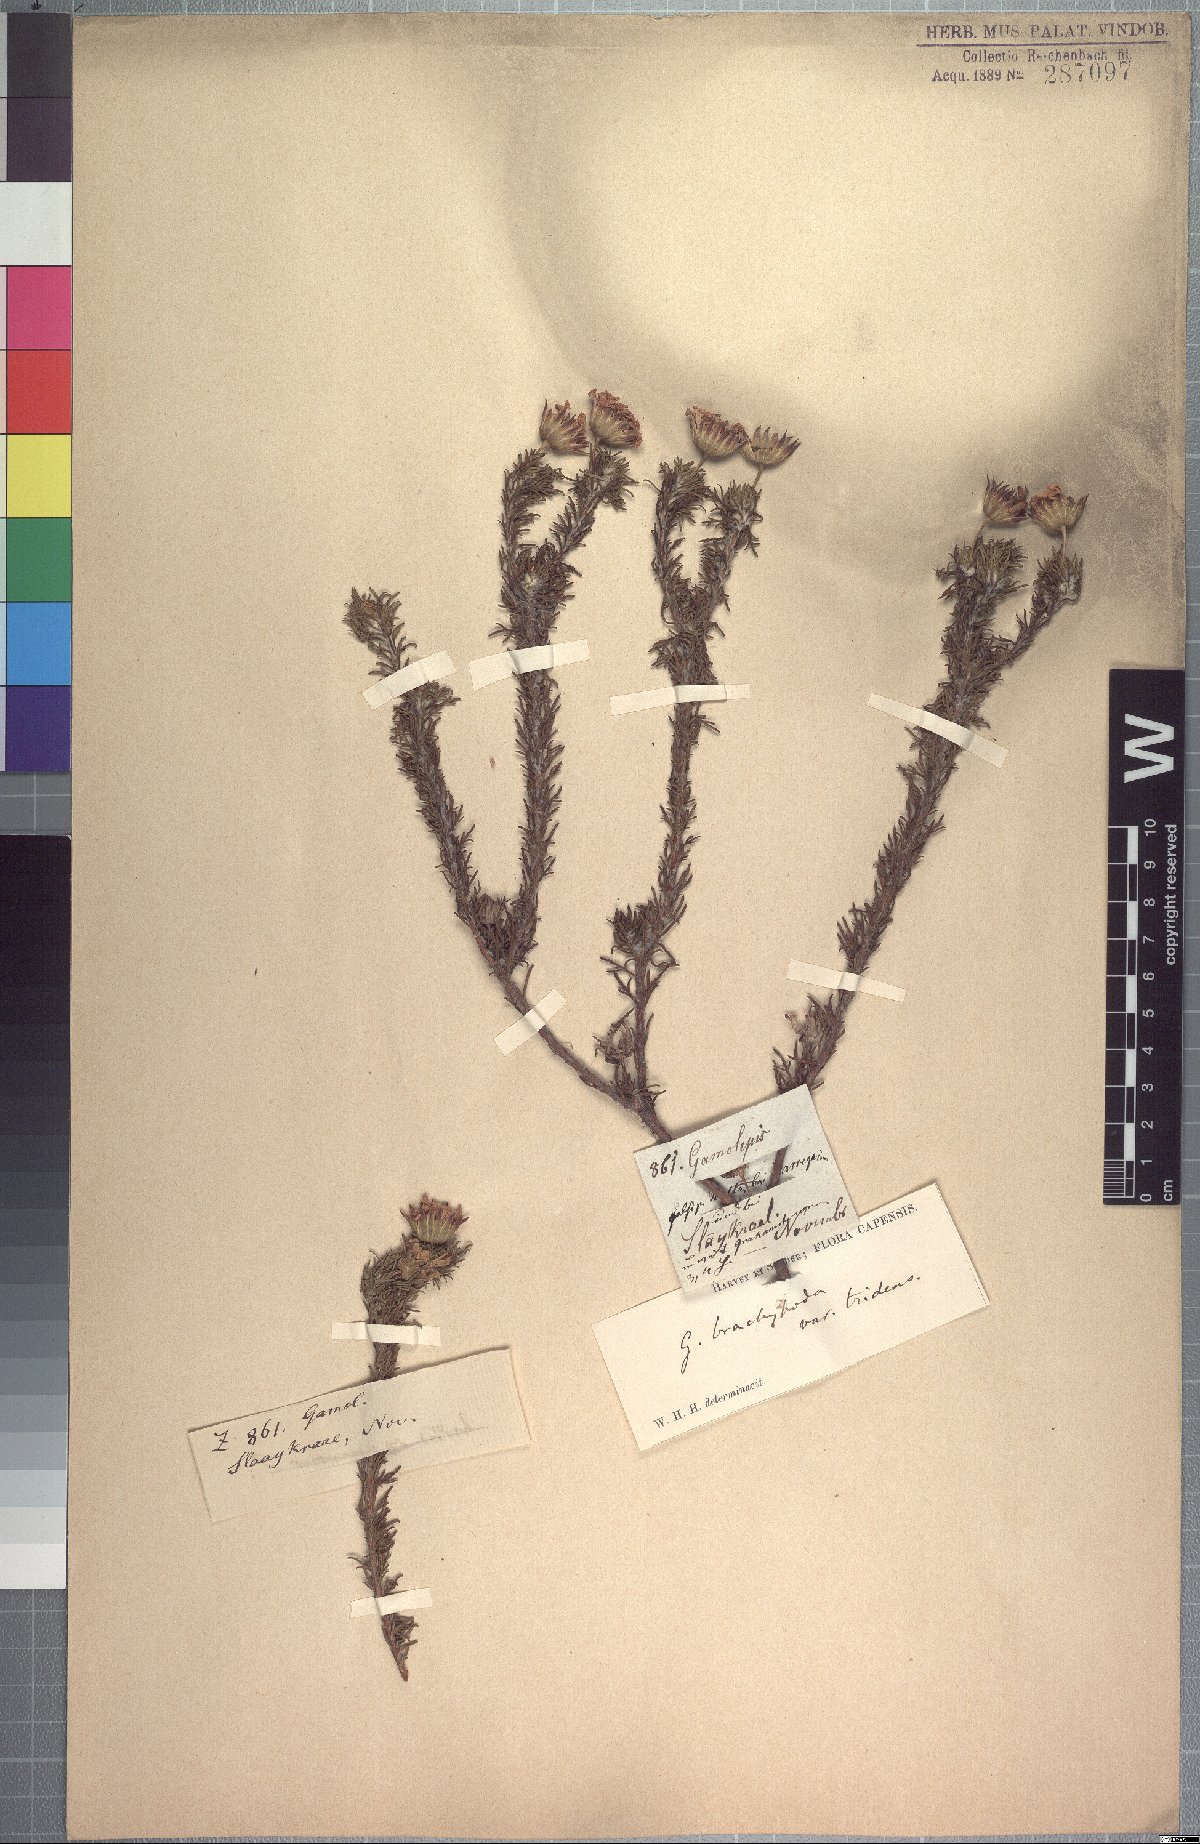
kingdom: Plantae
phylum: Tracheophyta
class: Magnoliopsida
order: Asterales
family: Asteraceae
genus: Euryops
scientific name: Euryops brachypodus
